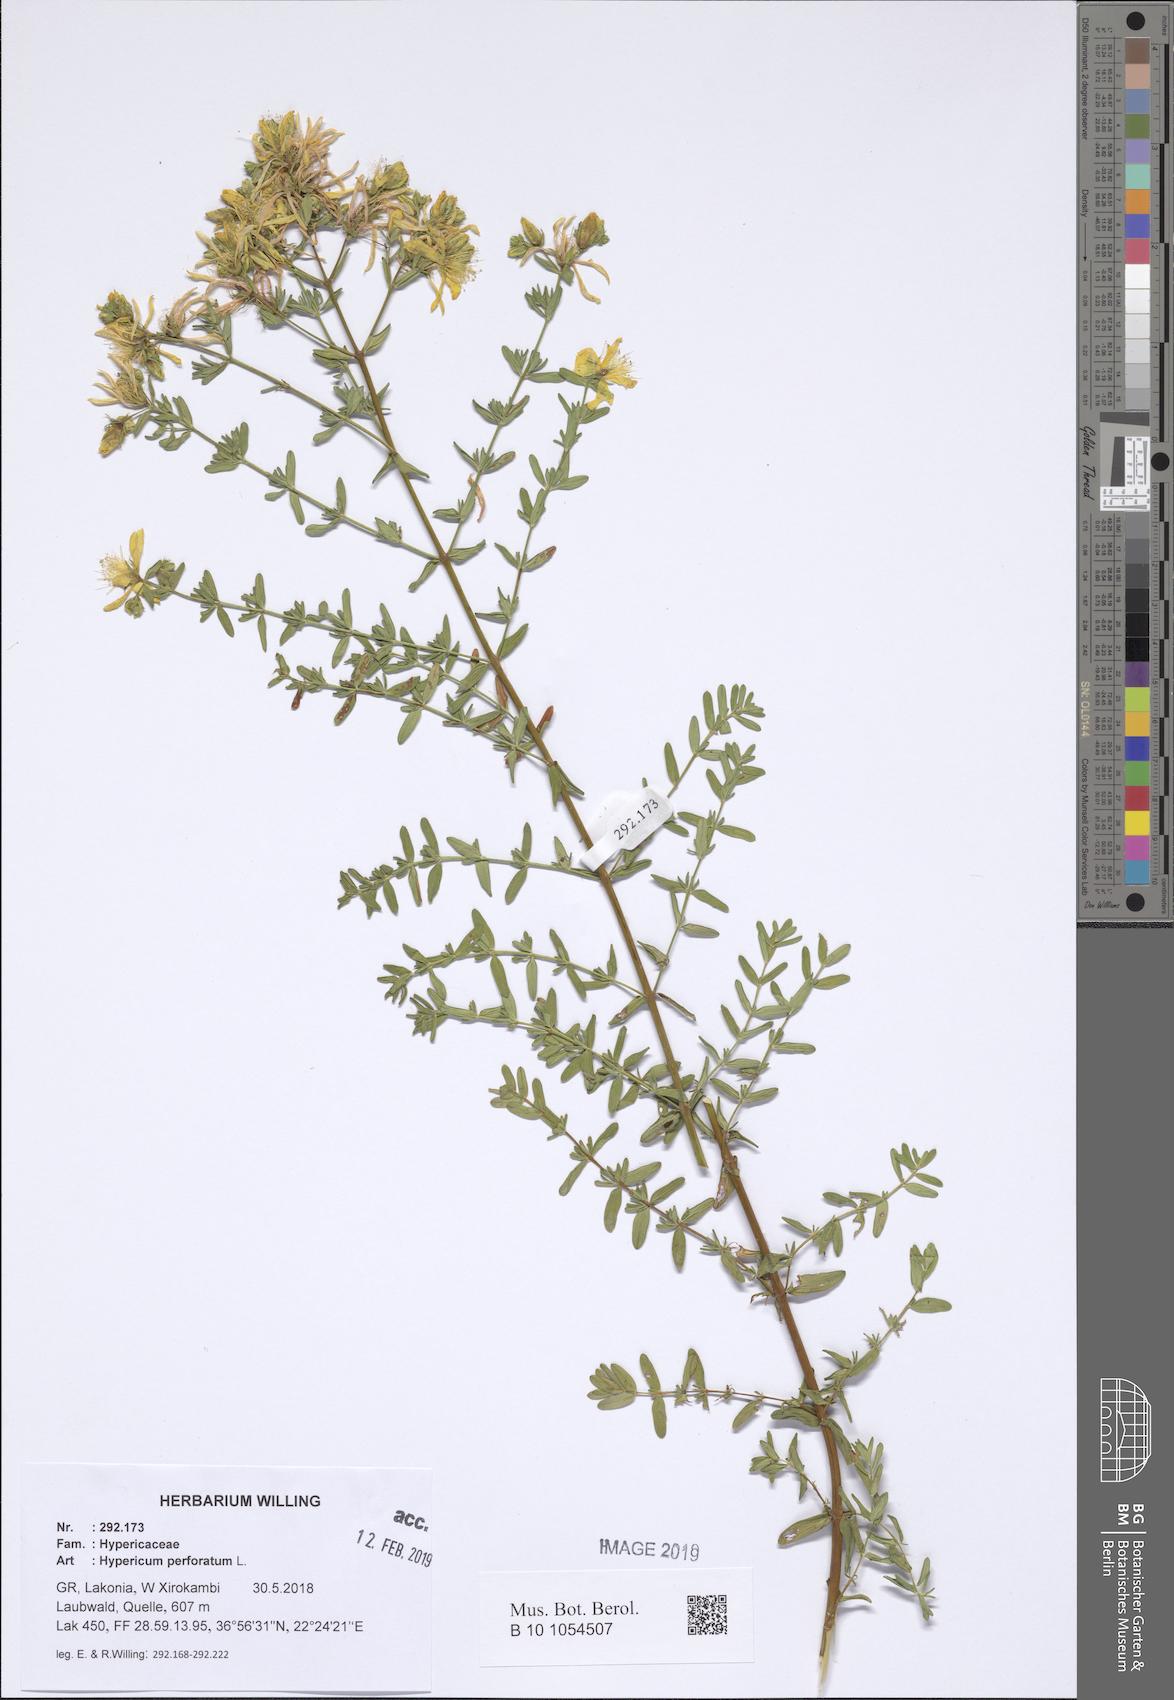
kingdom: Plantae
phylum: Tracheophyta
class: Magnoliopsida
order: Malpighiales
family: Hypericaceae
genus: Hypericum
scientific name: Hypericum perforatum
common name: Common st. johnswort
